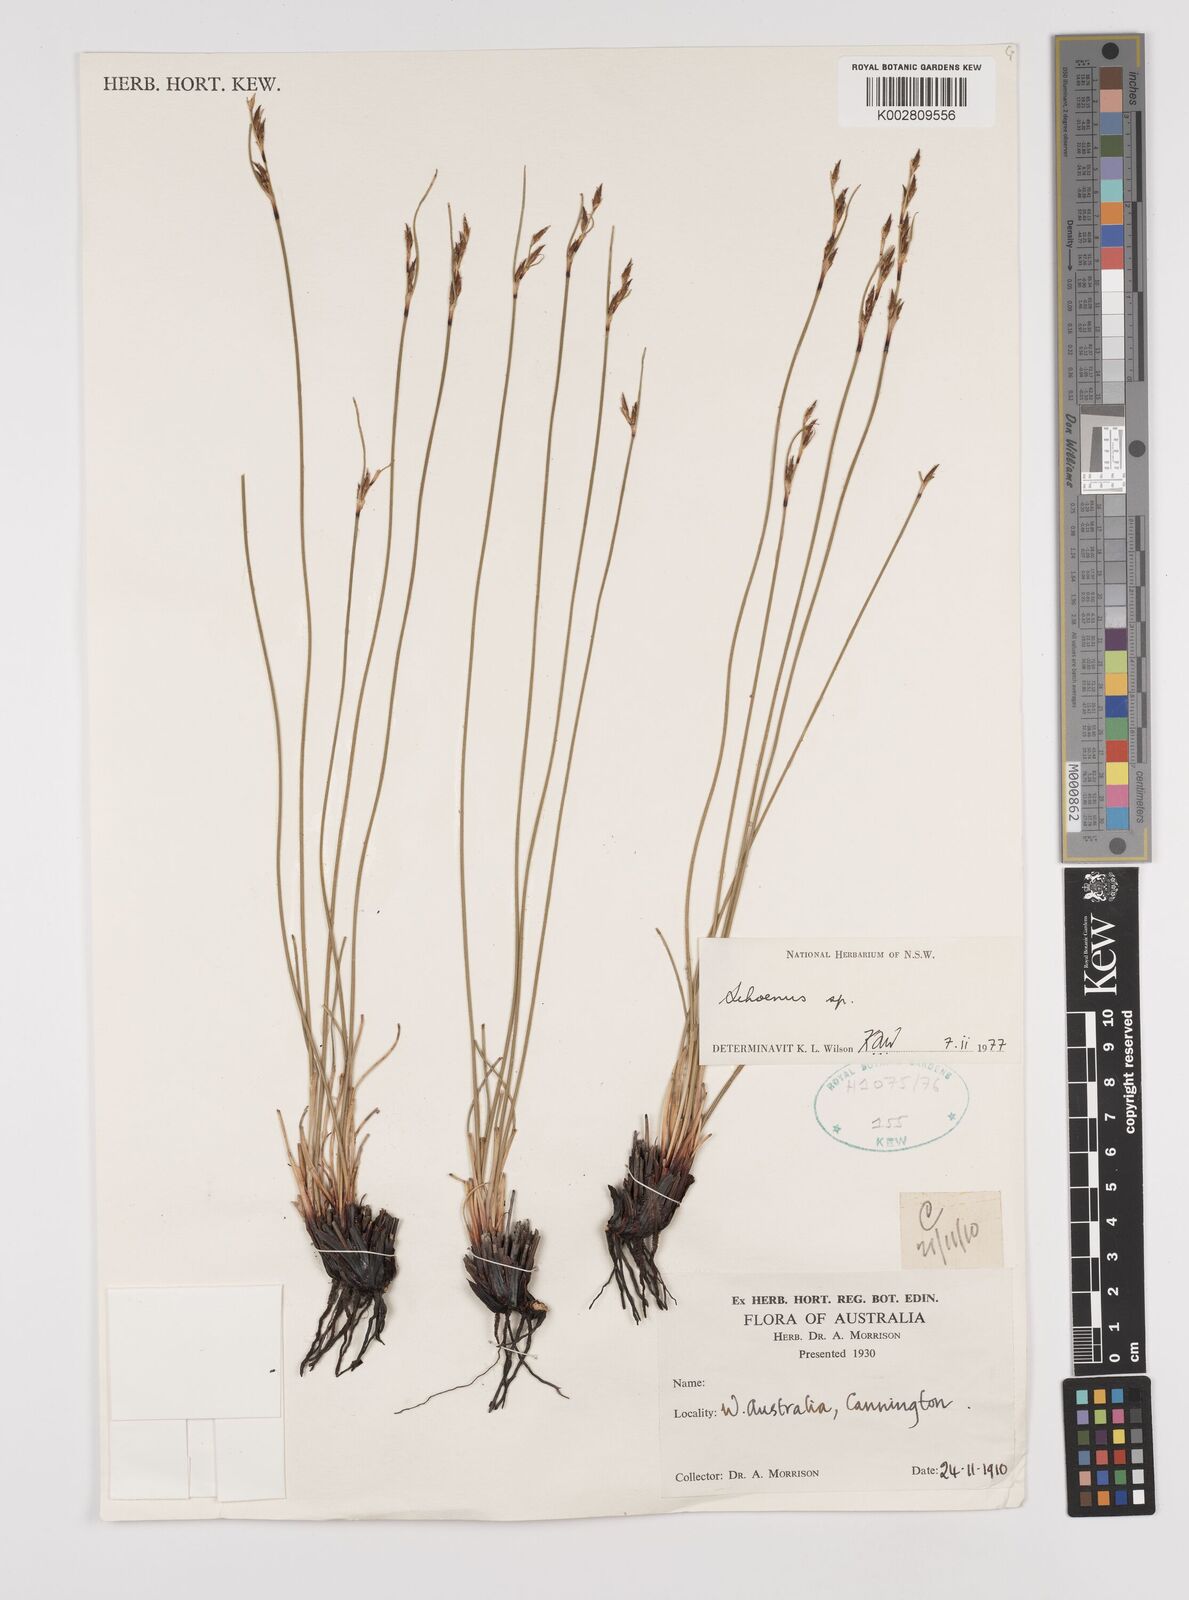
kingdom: Plantae
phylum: Tracheophyta
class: Liliopsida
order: Poales
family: Cyperaceae
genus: Schoenus
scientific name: Schoenus
